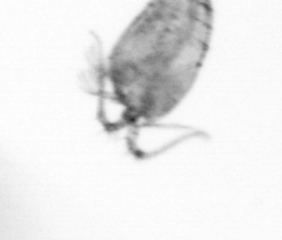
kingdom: Animalia
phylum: Arthropoda
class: Copepoda
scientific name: Copepoda
